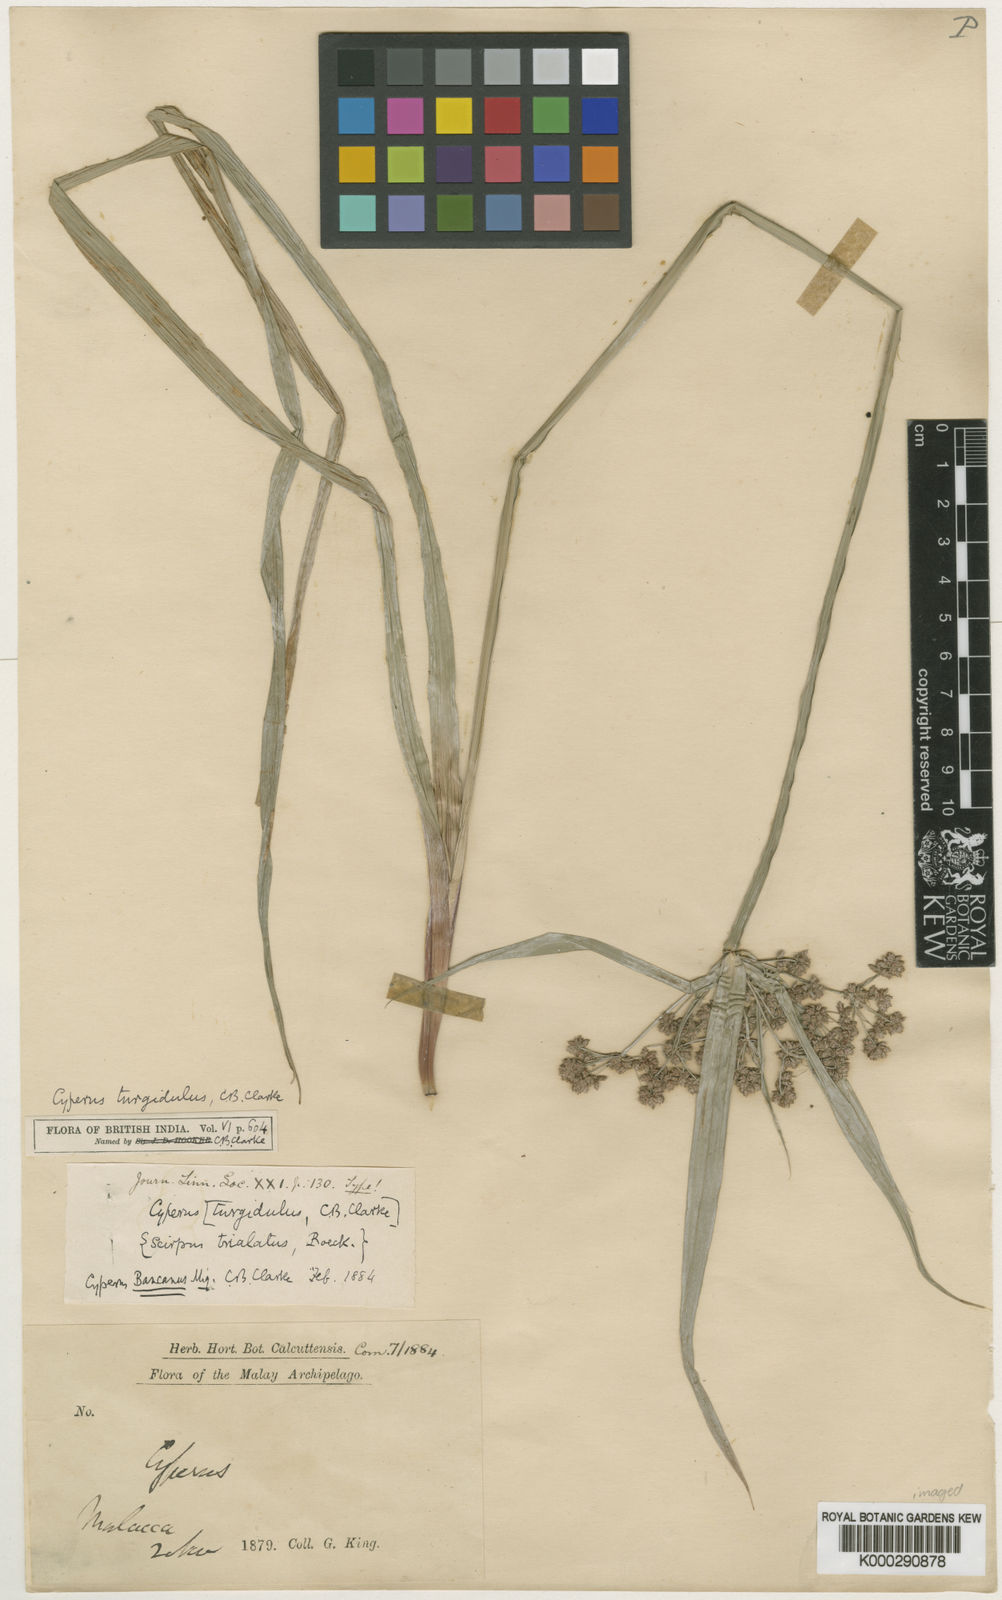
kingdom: Plantae
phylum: Tracheophyta
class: Liliopsida
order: Poales
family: Cyperaceae
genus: Cyperus
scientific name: Cyperus trialatus
